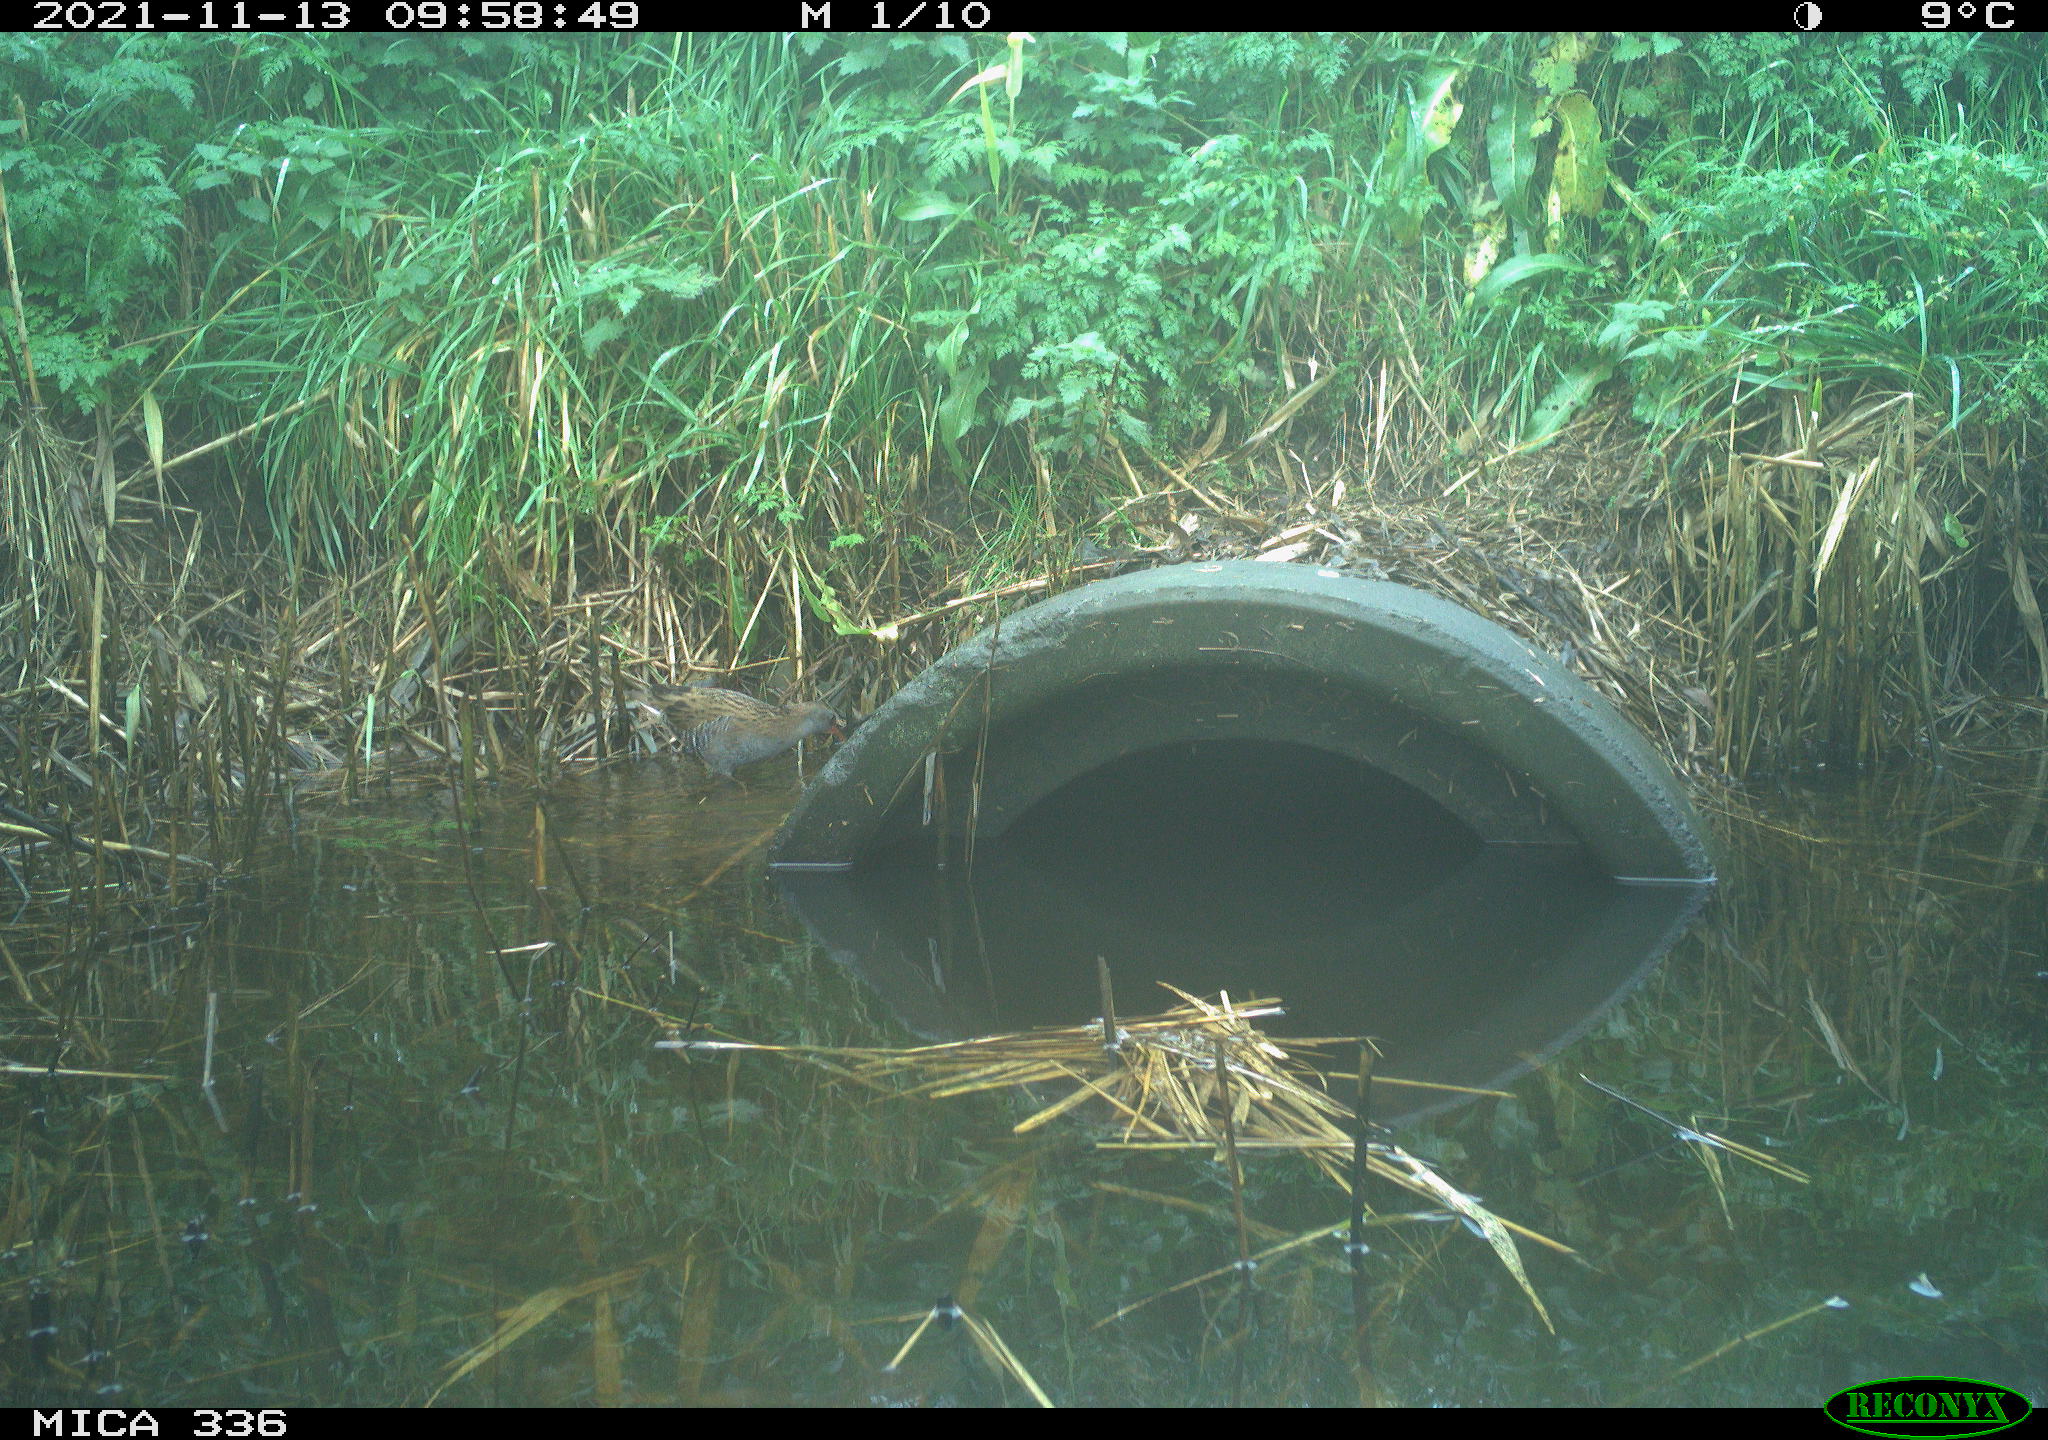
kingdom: Animalia
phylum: Chordata
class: Aves
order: Gruiformes
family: Rallidae
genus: Gallinula
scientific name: Gallinula chloropus
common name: Common moorhen
